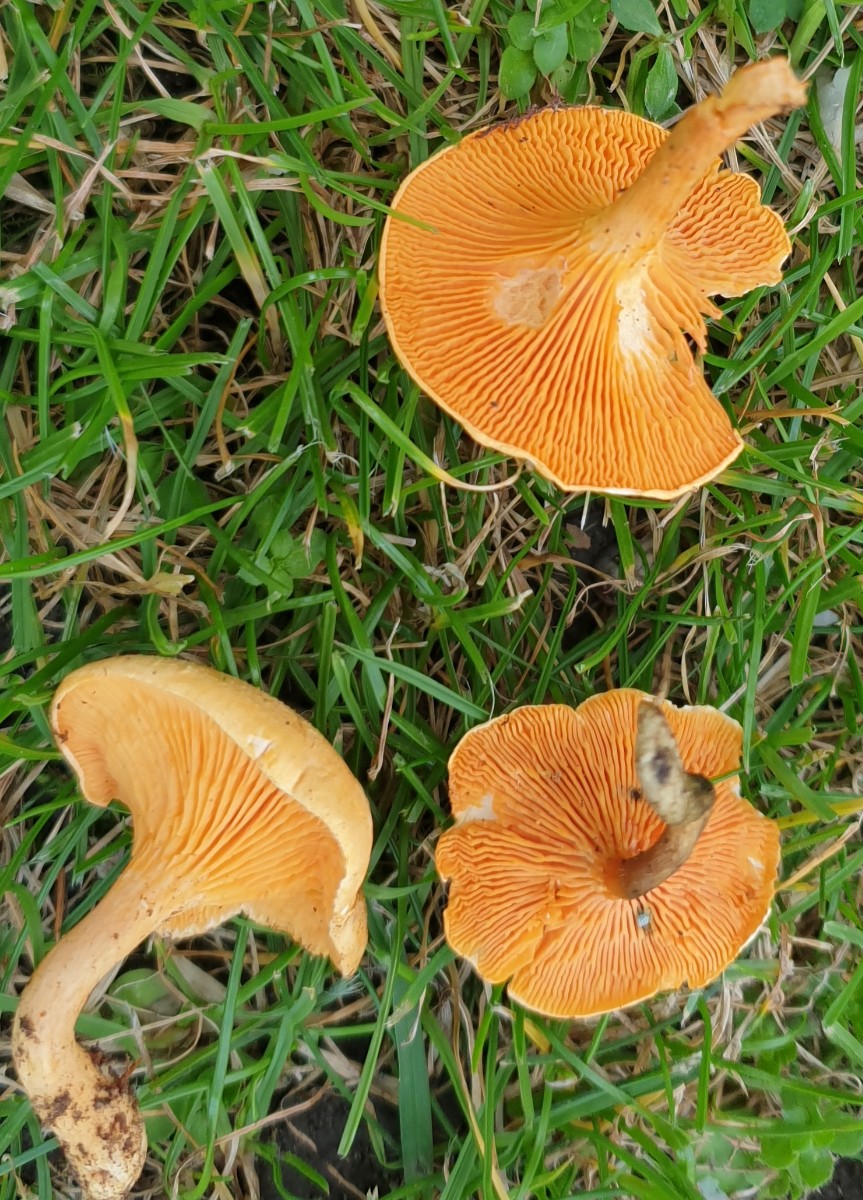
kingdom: Fungi
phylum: Basidiomycota
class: Agaricomycetes
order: Boletales
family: Hygrophoropsidaceae
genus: Hygrophoropsis
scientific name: Hygrophoropsis aurantiaca
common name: almindelig orangekantarel
